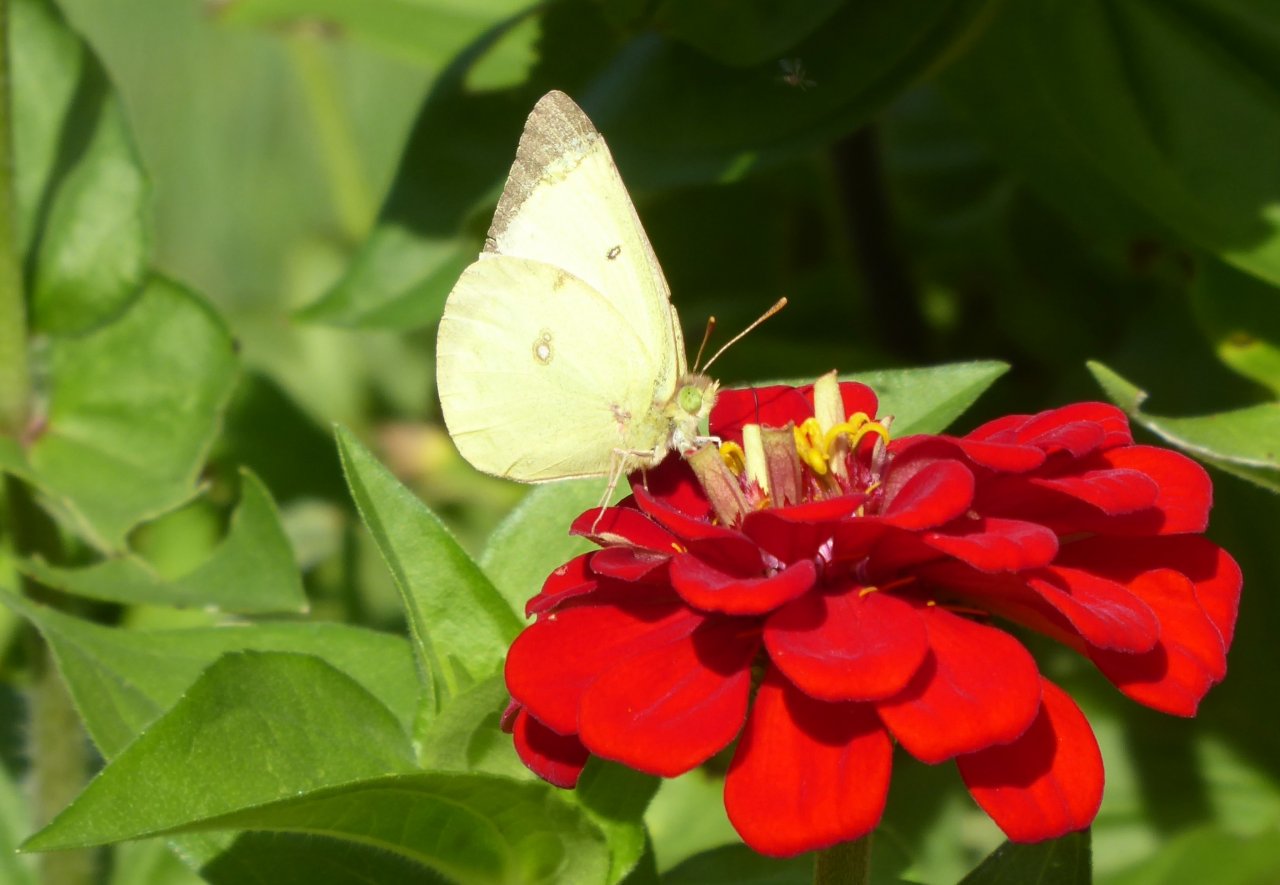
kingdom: Animalia
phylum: Arthropoda
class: Insecta
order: Lepidoptera
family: Pieridae
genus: Colias
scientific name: Colias philodice
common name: Clouded Sulphur
